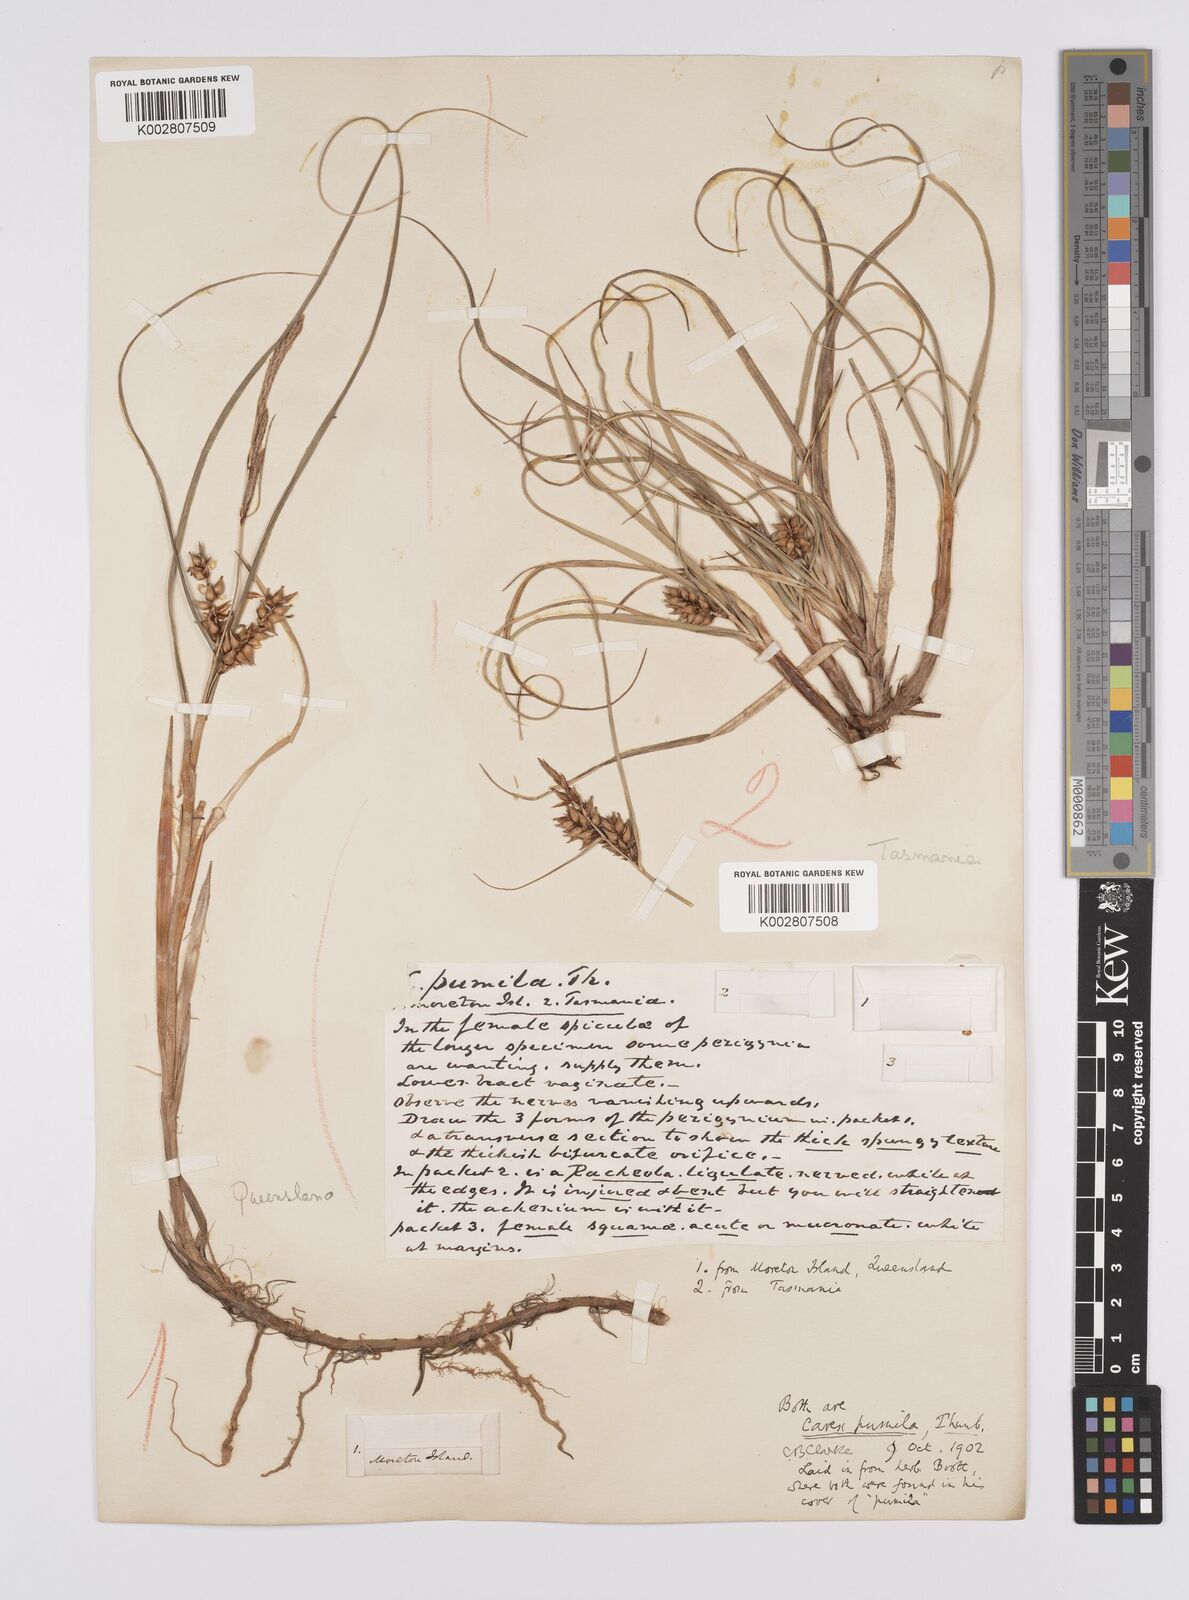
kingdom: Plantae
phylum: Tracheophyta
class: Liliopsida
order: Poales
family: Cyperaceae
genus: Carex
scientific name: Carex pumila
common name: Dwarf sedge
